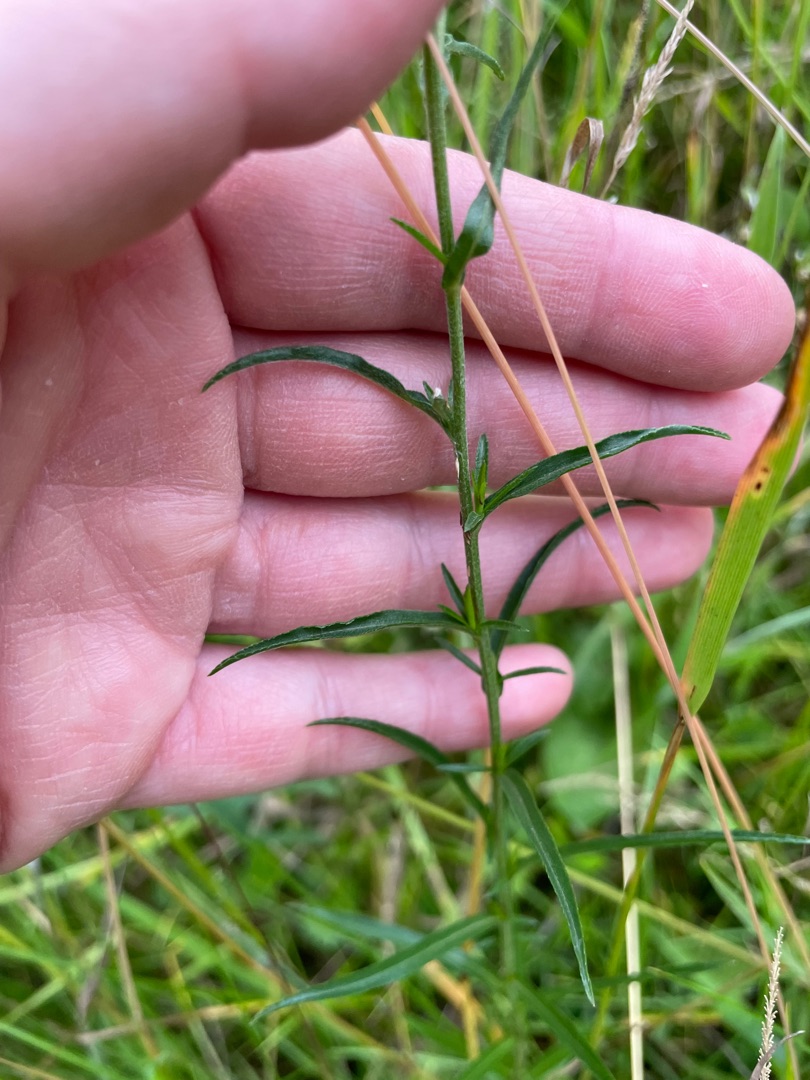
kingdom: Plantae
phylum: Tracheophyta
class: Magnoliopsida
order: Asterales
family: Asteraceae
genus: Achillea
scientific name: Achillea ptarmica
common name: Nyse-røllike
